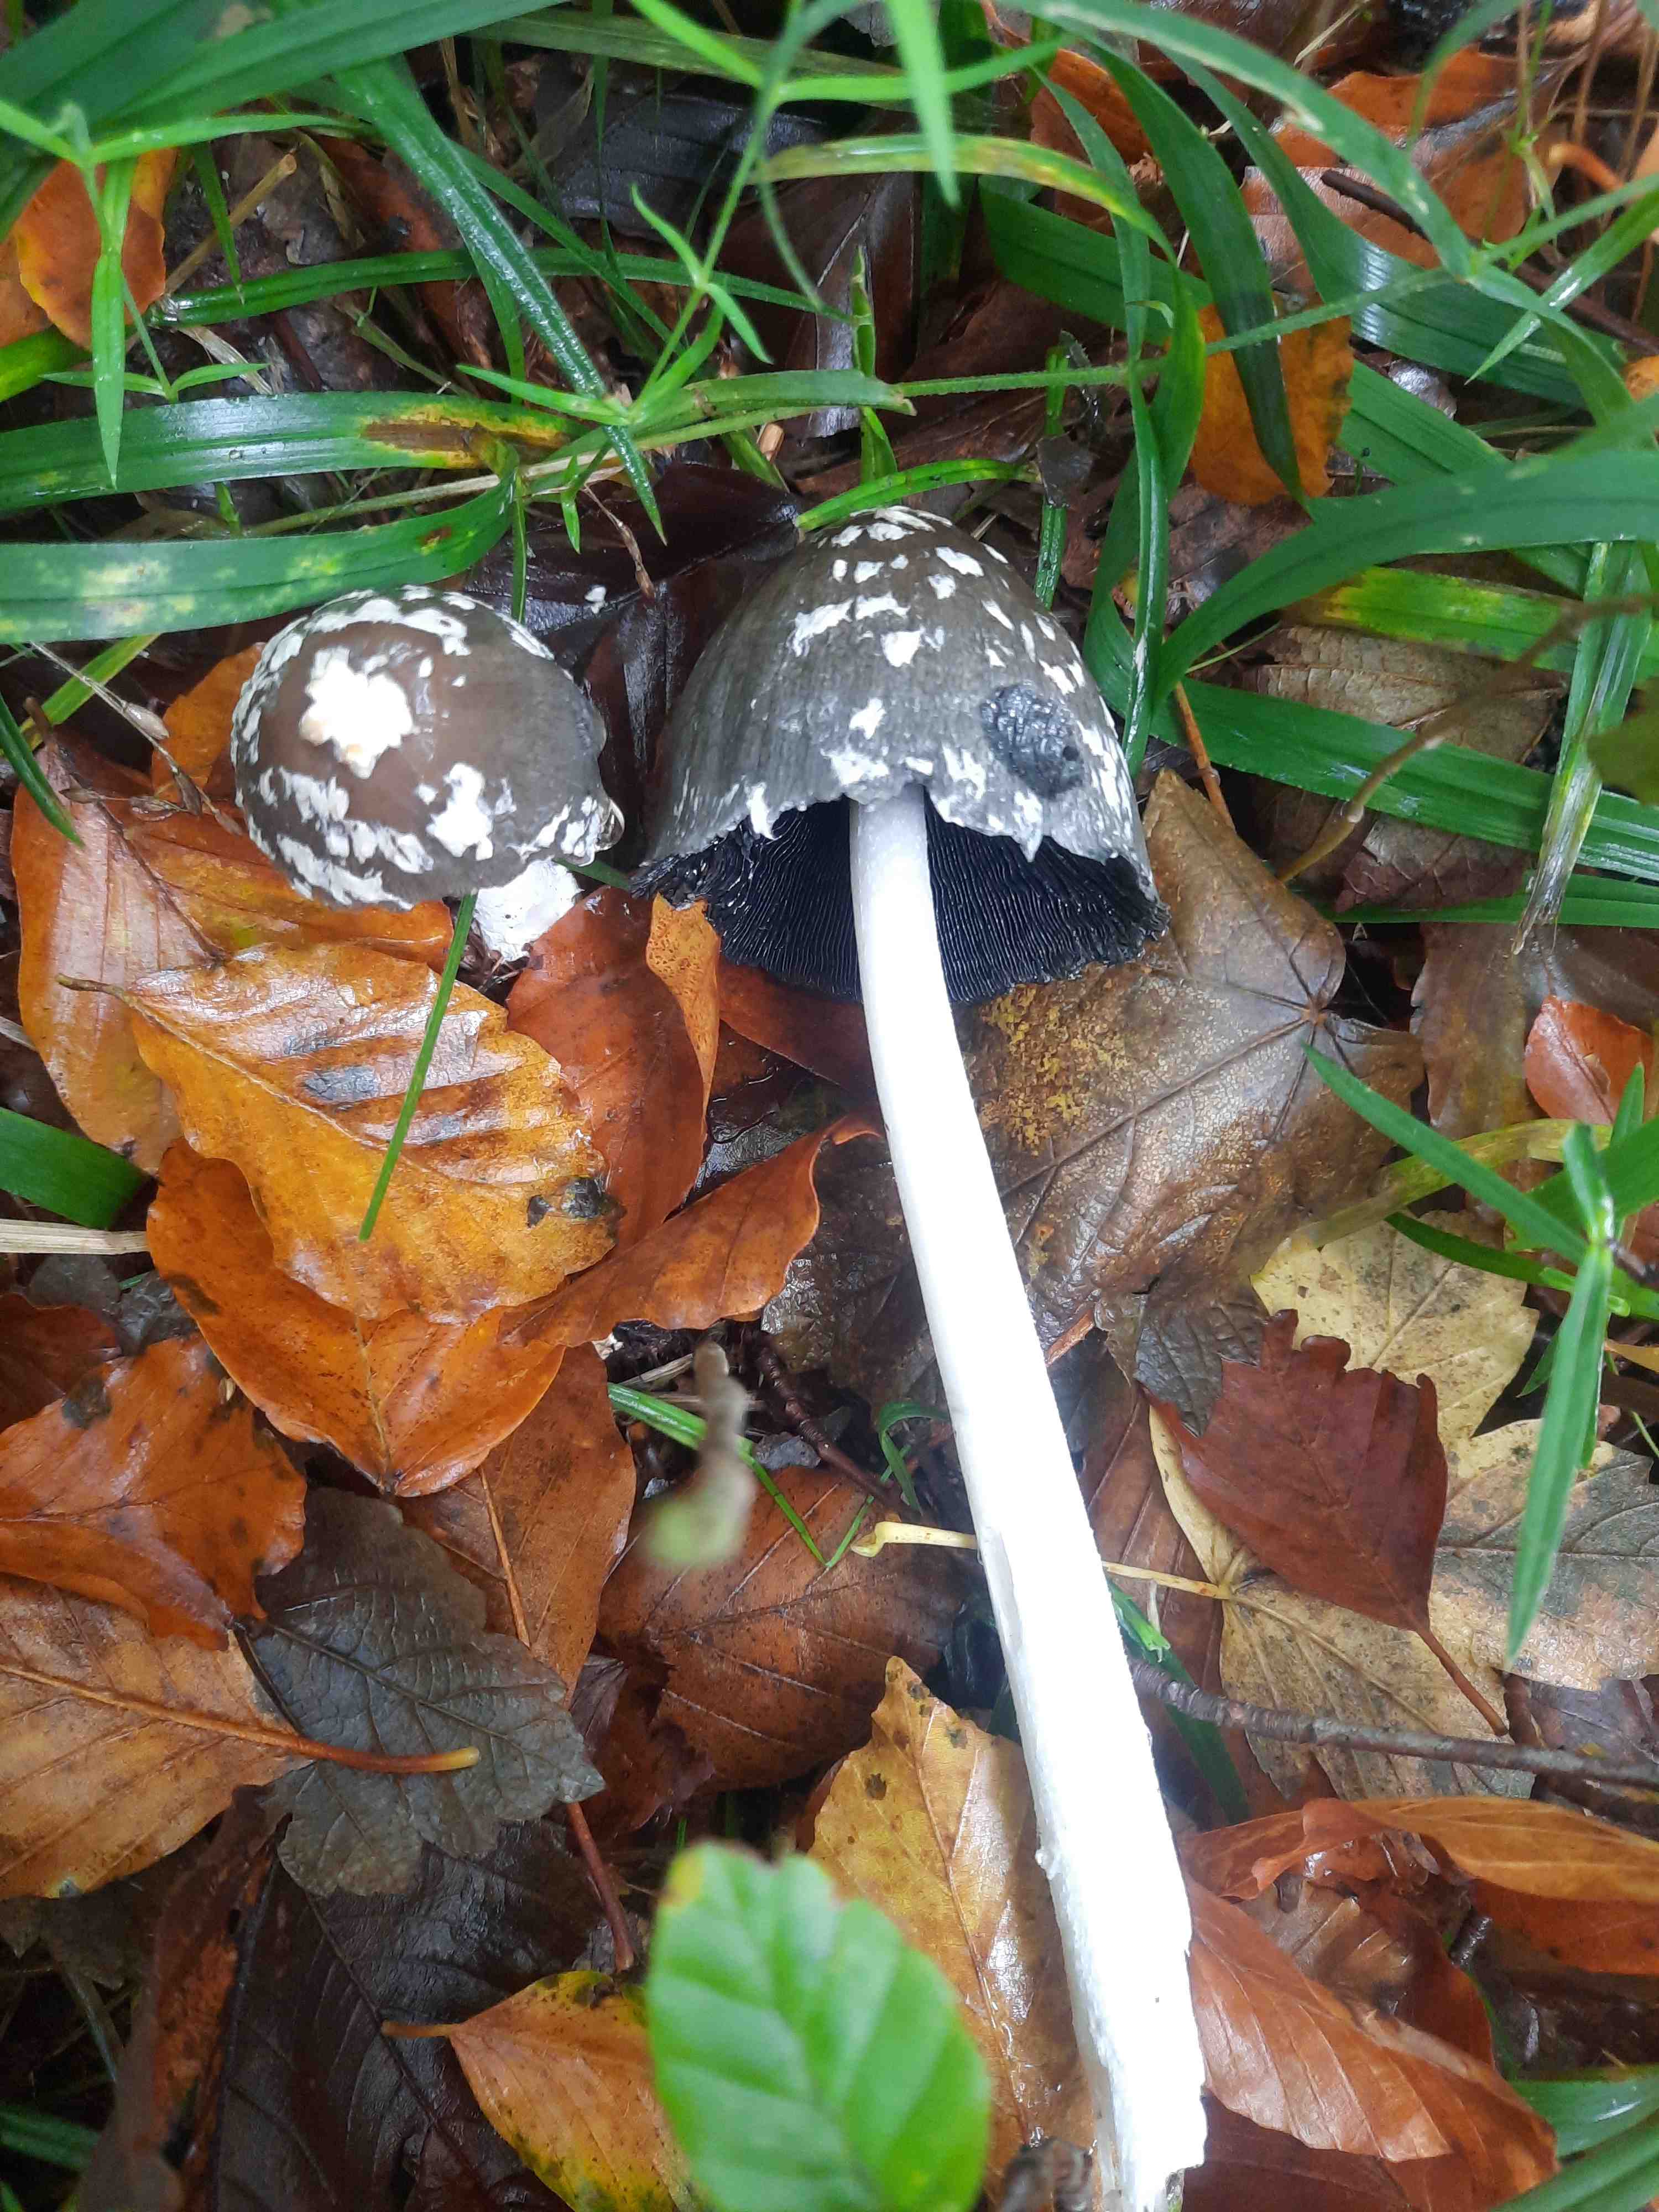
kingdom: Fungi
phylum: Basidiomycota
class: Agaricomycetes
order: Agaricales
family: Psathyrellaceae
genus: Coprinopsis
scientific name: Coprinopsis picacea
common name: skade-blækhat
